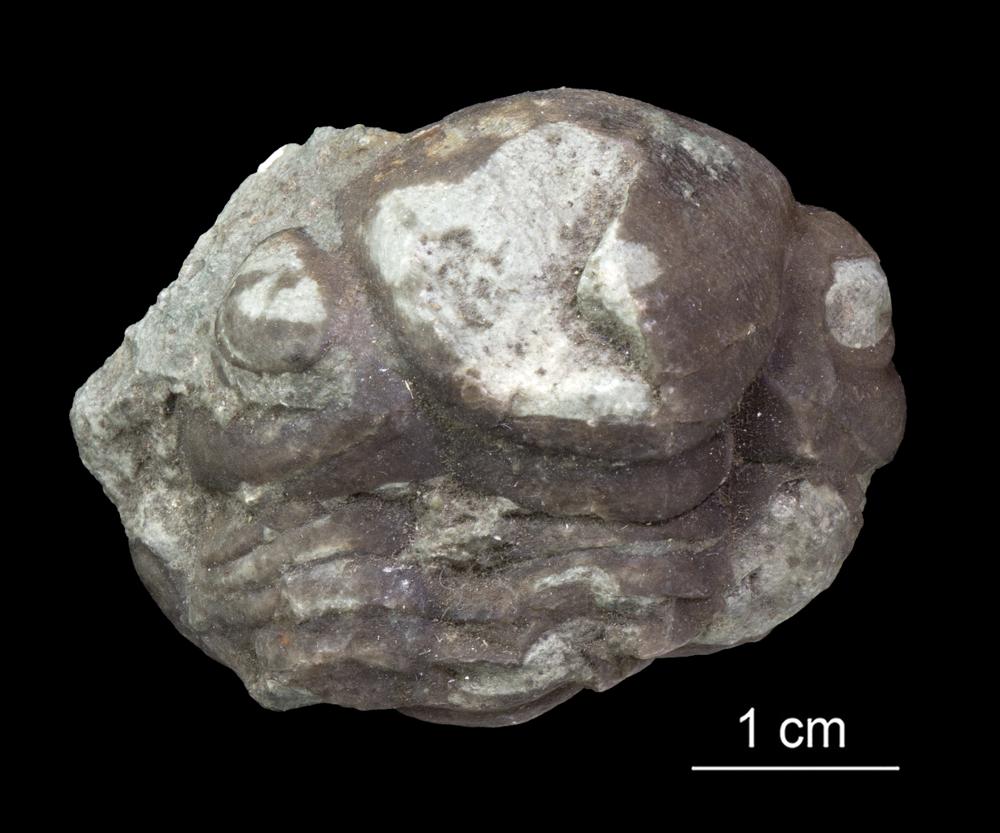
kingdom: Animalia
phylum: Arthropoda
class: Trilobita
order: Asaphida
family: Nileidae
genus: Nileus
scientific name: Nileus
